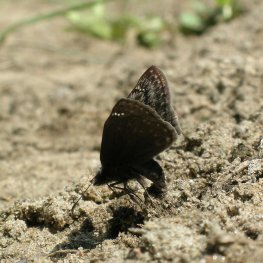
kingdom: Animalia
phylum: Arthropoda
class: Insecta
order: Lepidoptera
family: Hesperiidae
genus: Gesta
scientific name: Gesta
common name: Columbine Duskywing
